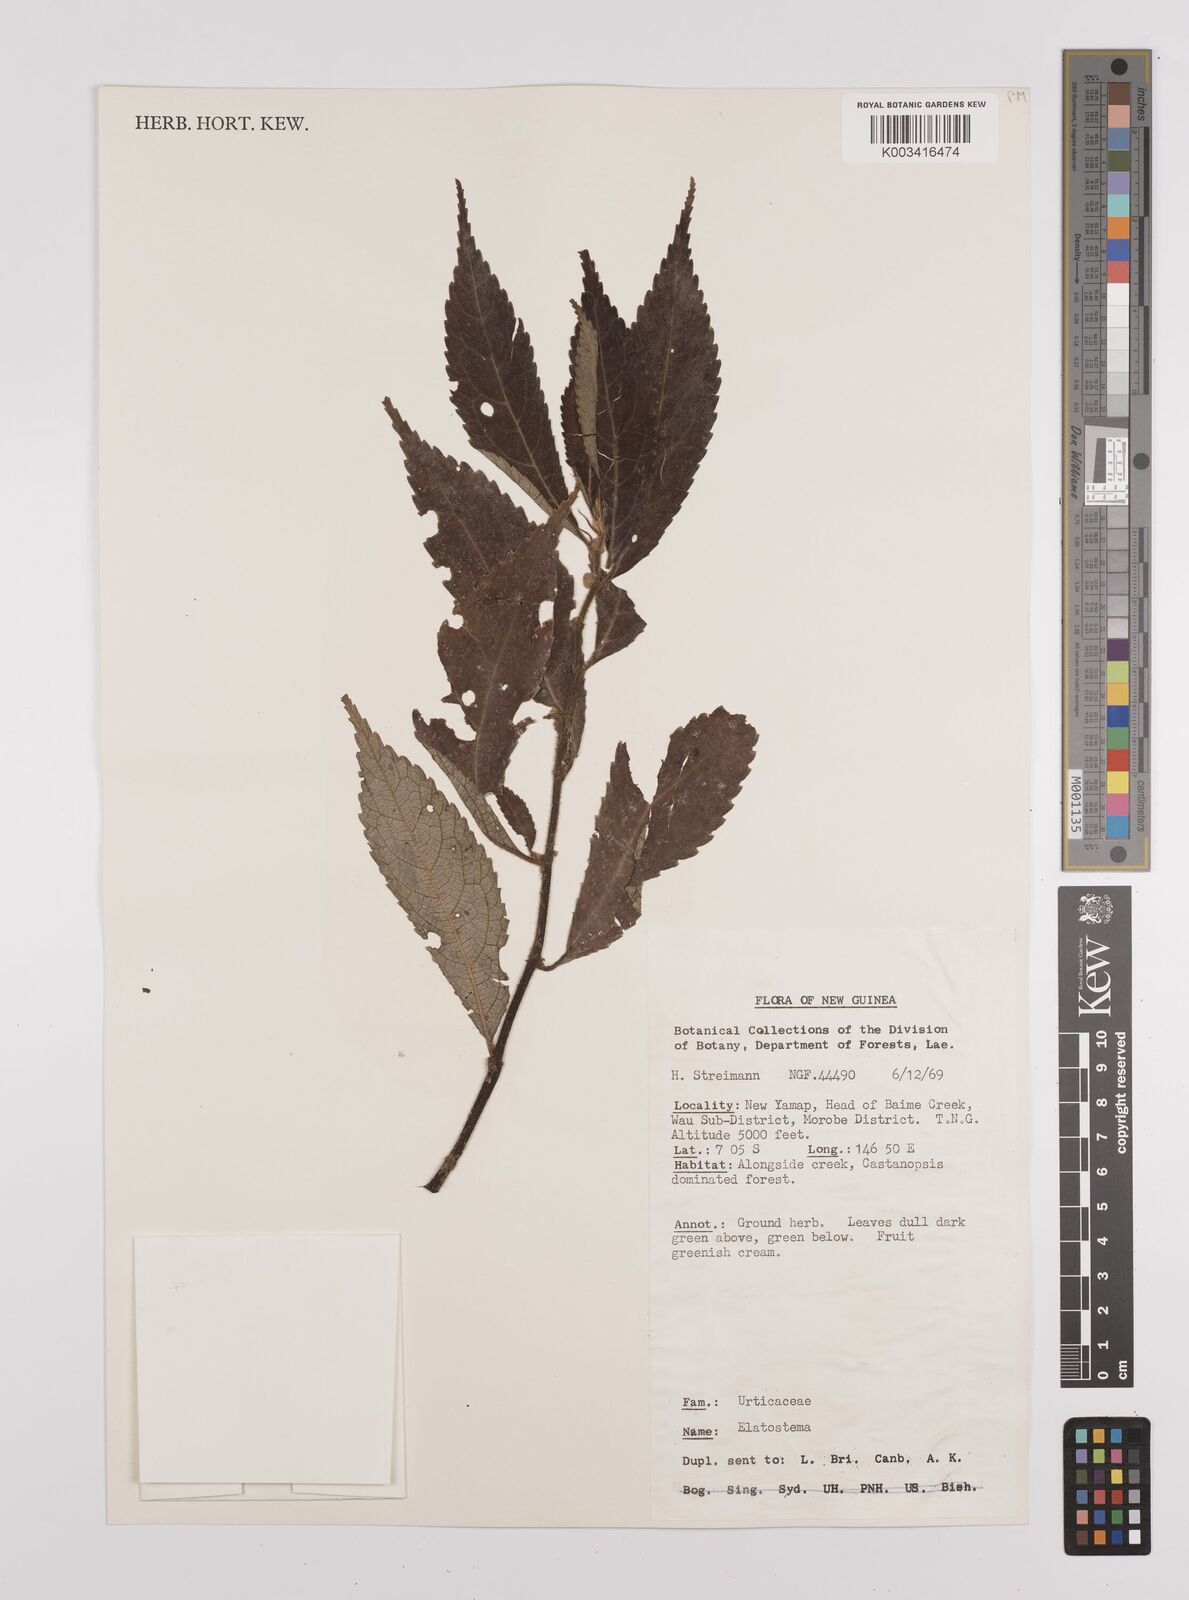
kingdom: Plantae
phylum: Tracheophyta
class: Magnoliopsida
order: Rosales
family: Urticaceae
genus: Elatostema
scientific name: Elatostema
